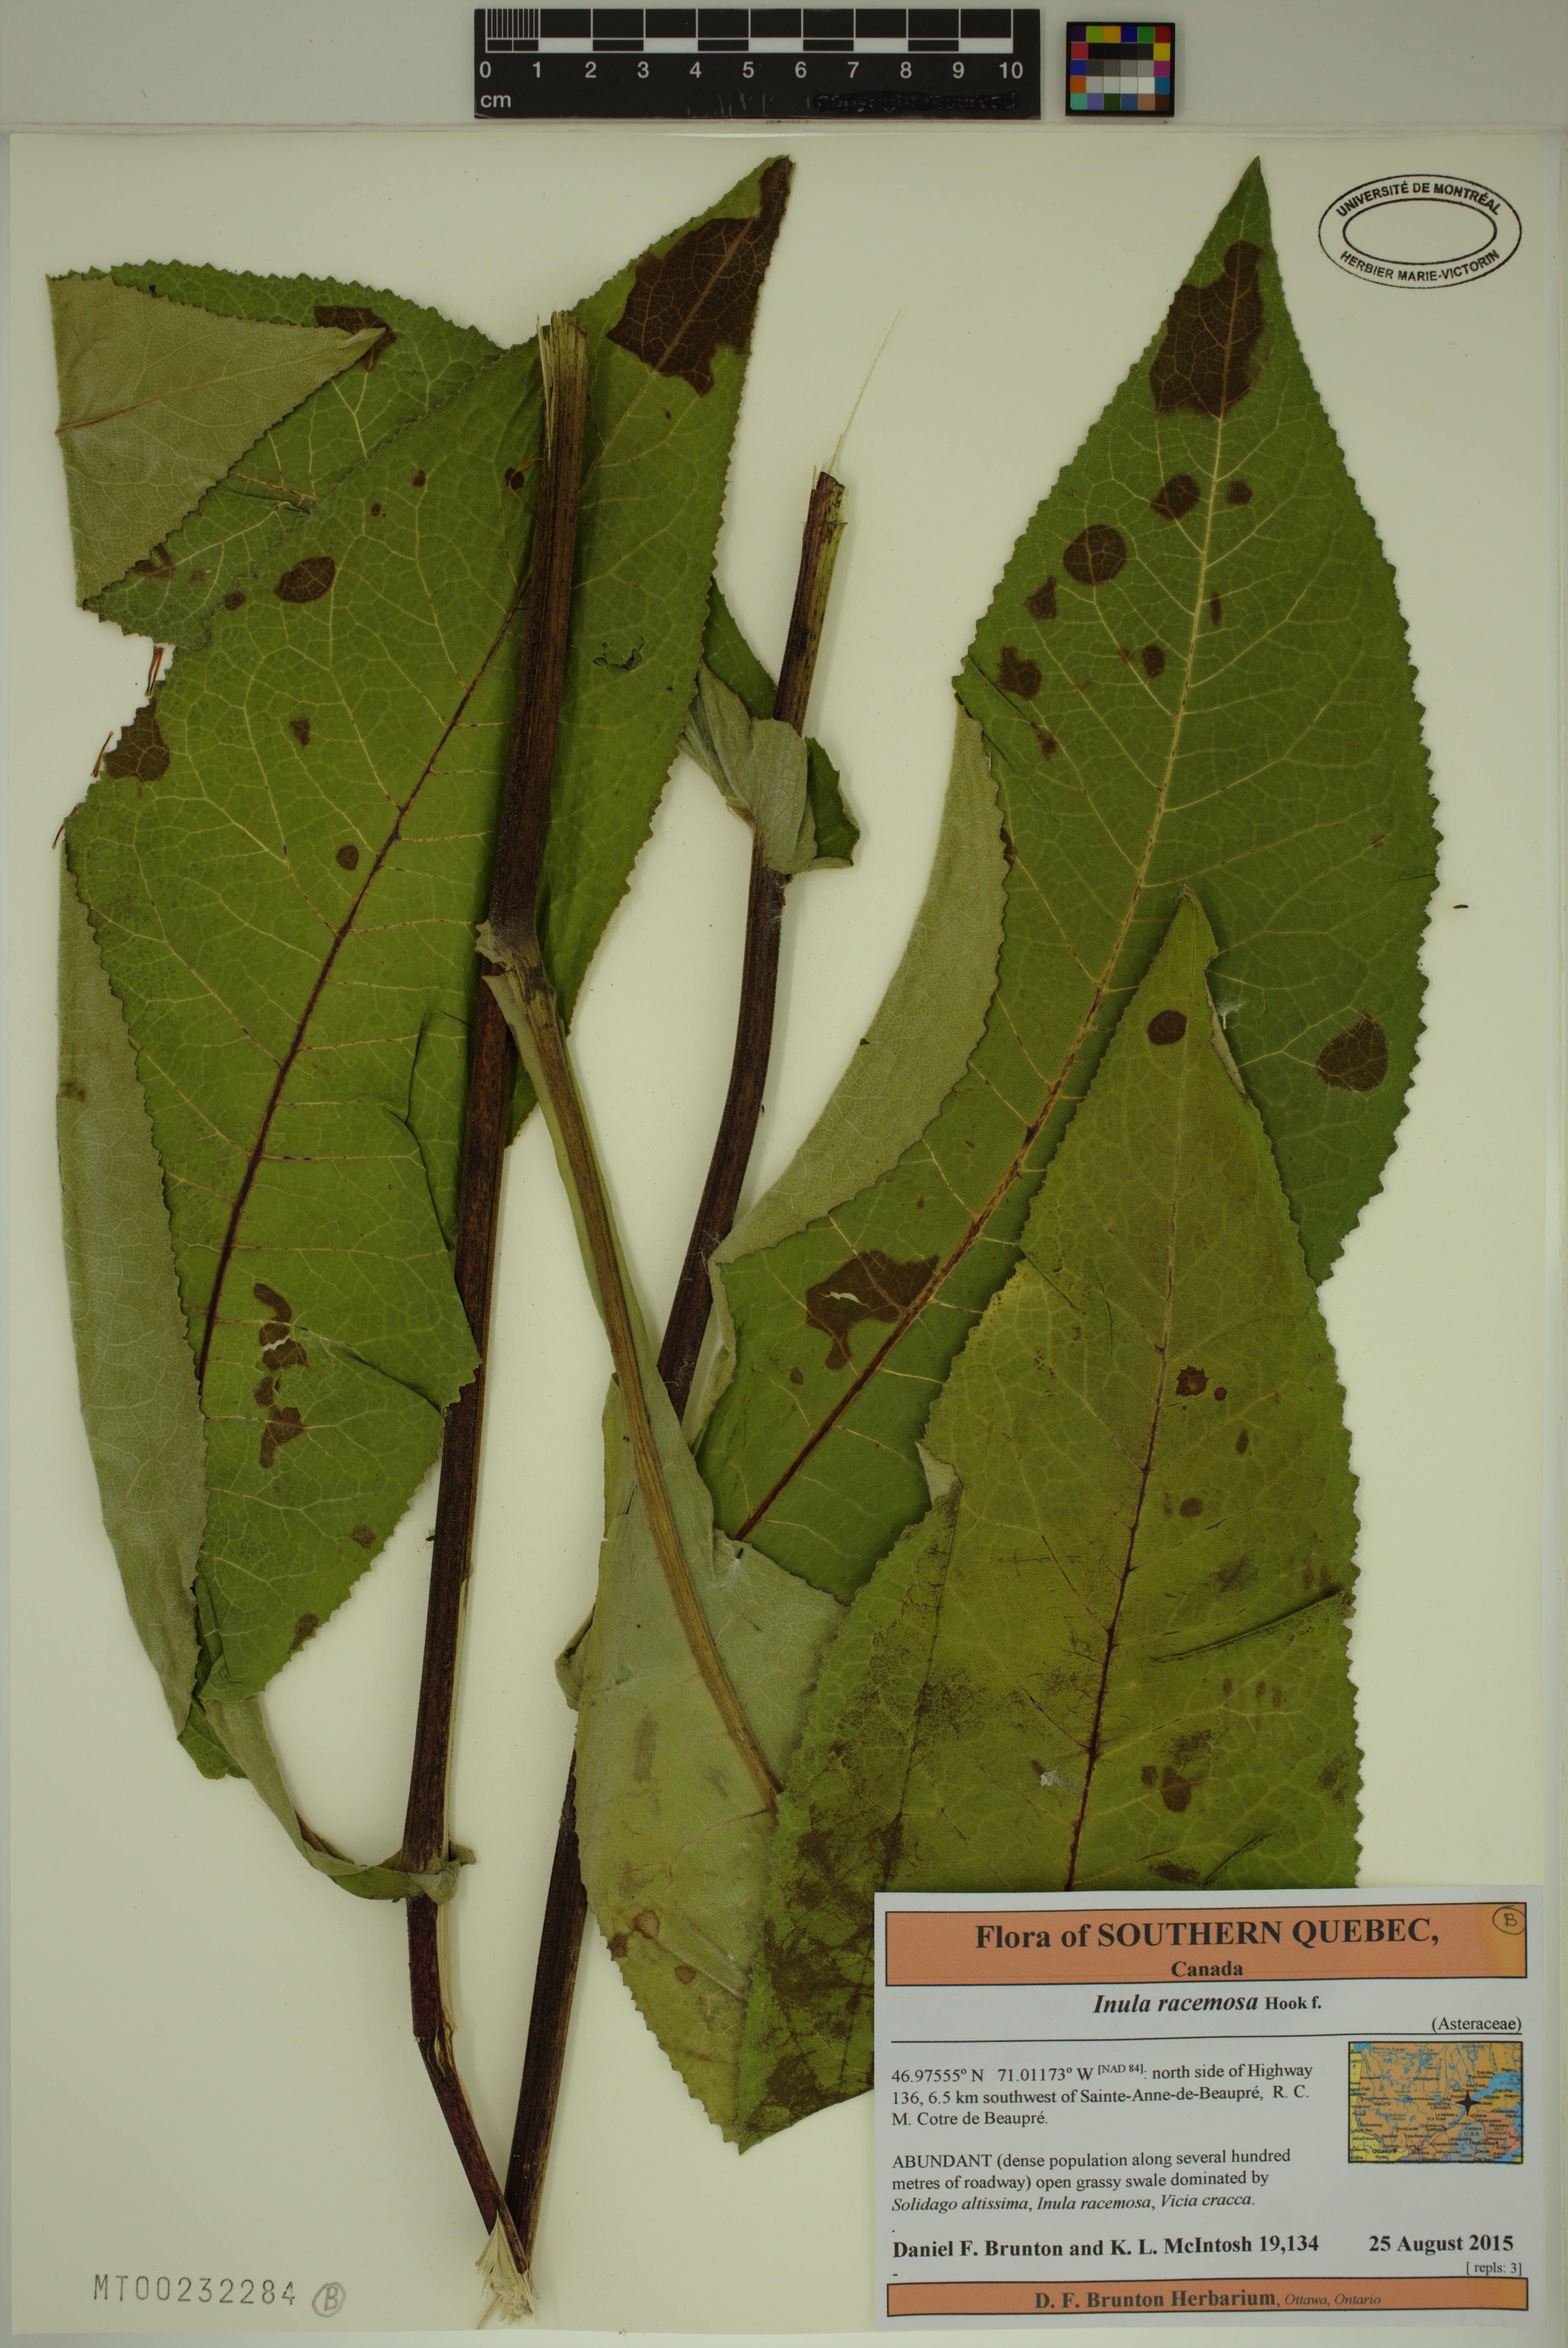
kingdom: Plantae
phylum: Tracheophyta
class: Magnoliopsida
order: Asterales
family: Asteraceae
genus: Inula
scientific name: Inula racemosa
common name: Indian elecampane
